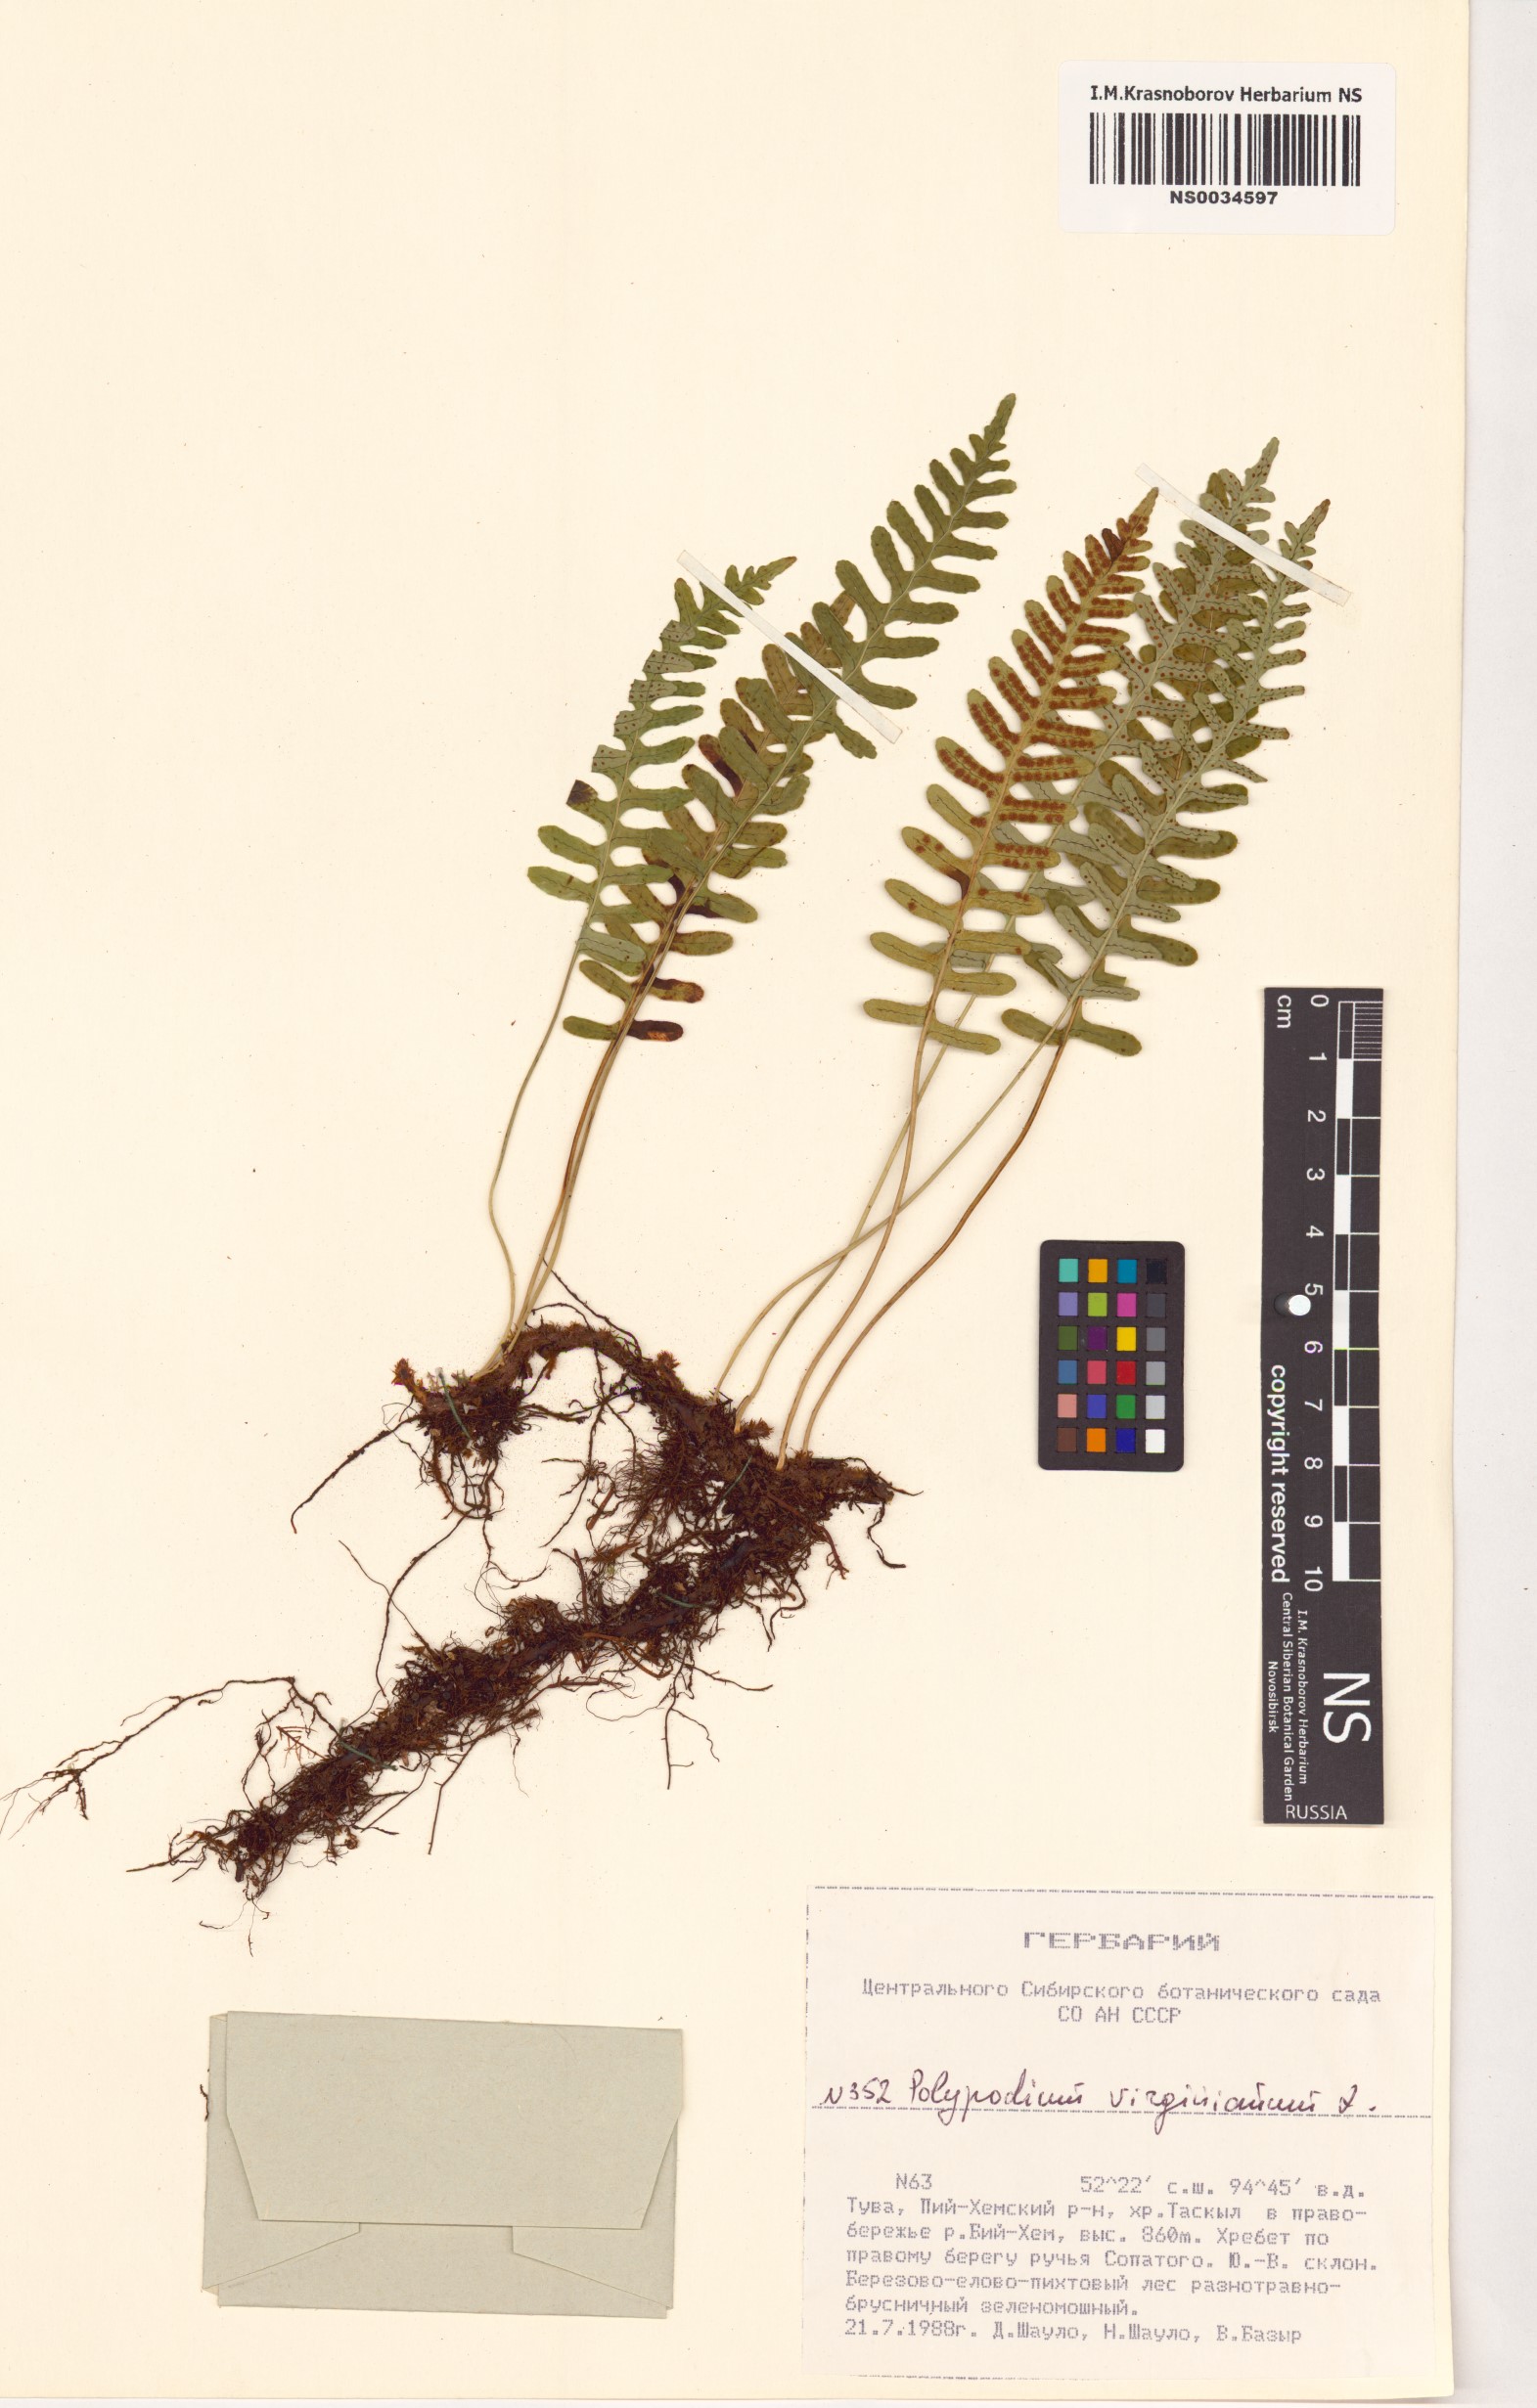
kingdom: Plantae
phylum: Tracheophyta
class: Polypodiopsida
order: Polypodiales
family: Polypodiaceae
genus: Polypodium
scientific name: Polypodium virginianum
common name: American wall fern
